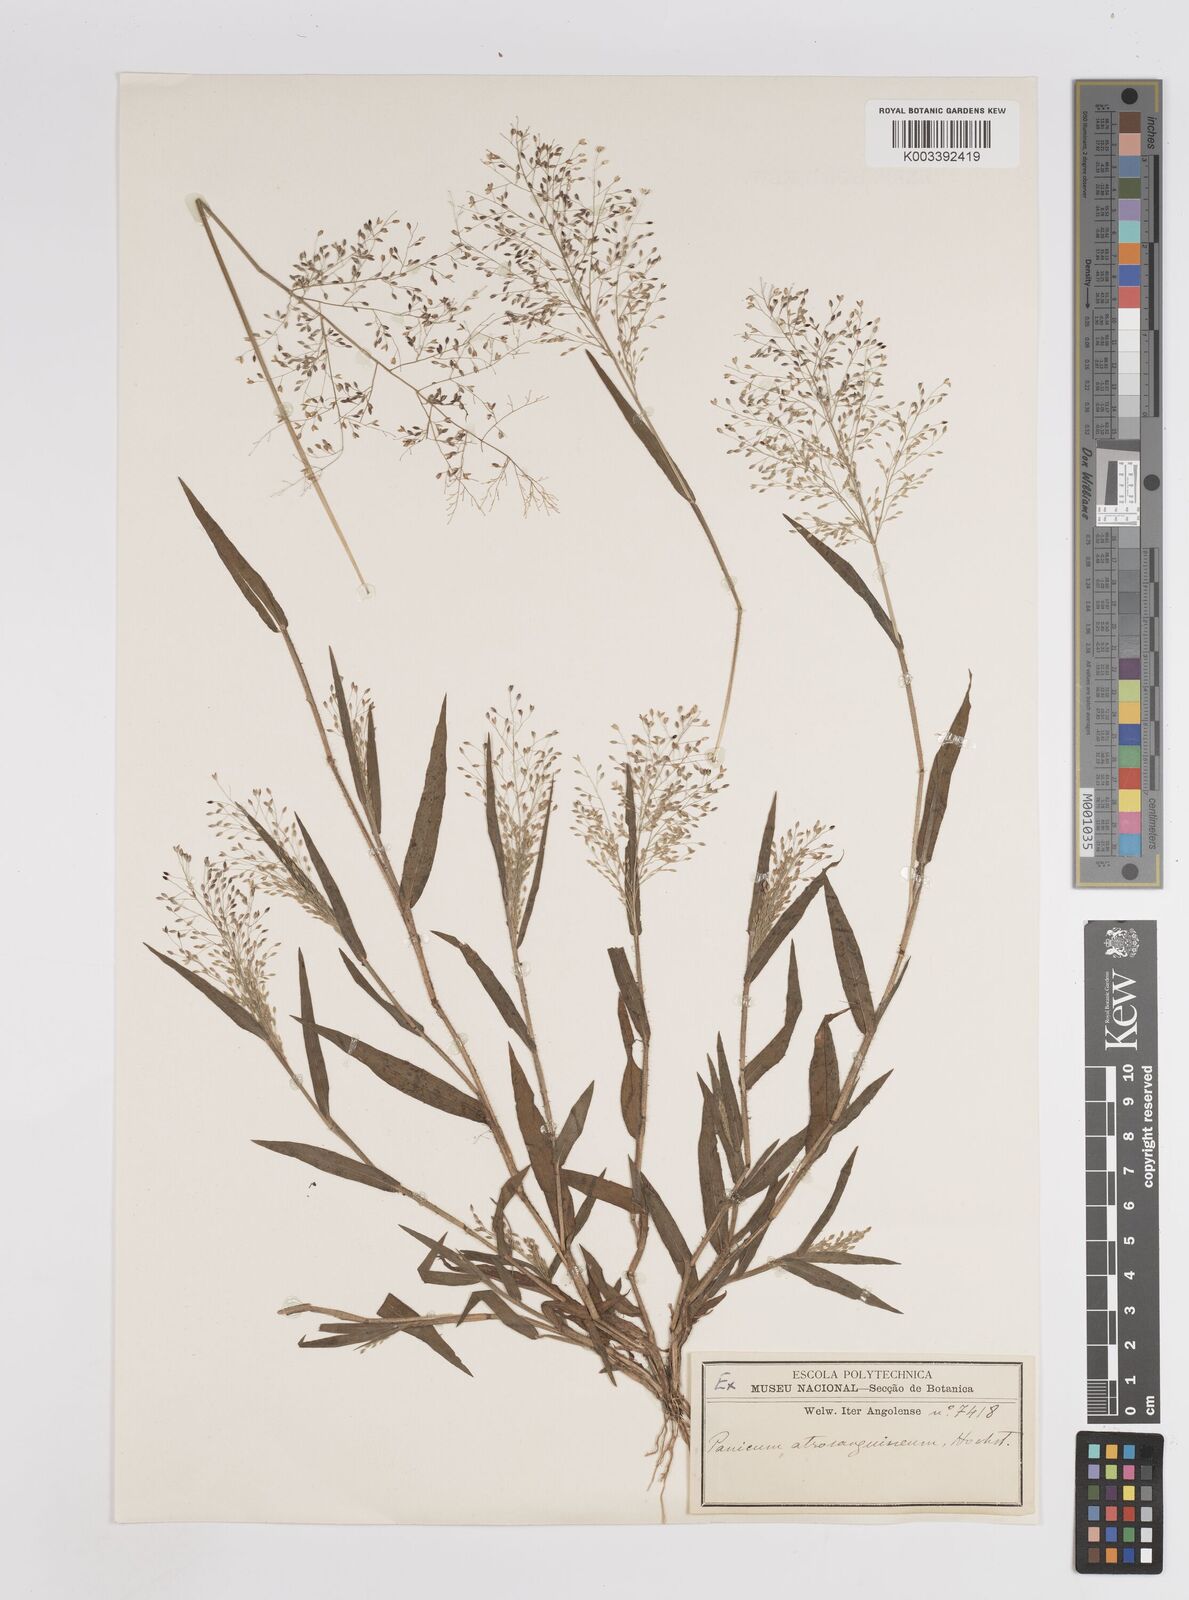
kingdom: Plantae
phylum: Tracheophyta
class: Liliopsida
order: Poales
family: Poaceae
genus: Panicum
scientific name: Panicum atrosanguineum
